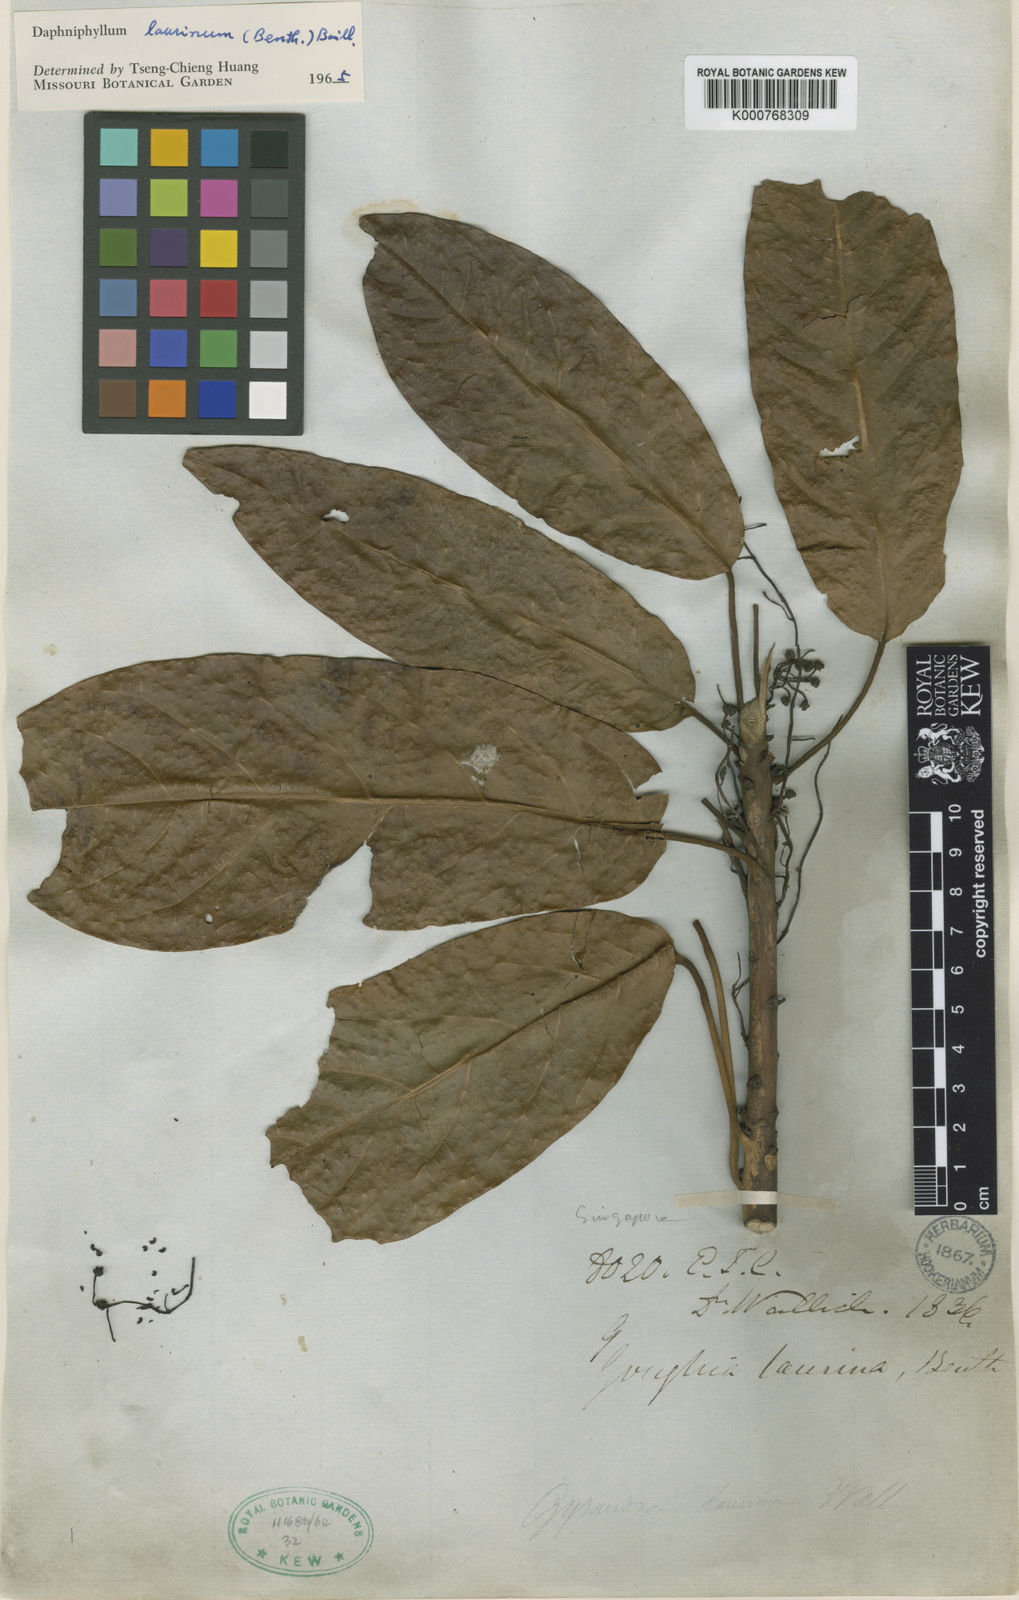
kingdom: Plantae
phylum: Tracheophyta
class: Magnoliopsida
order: Saxifragales
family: Daphniphyllaceae
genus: Daphniphyllum
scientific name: Daphniphyllum laurinum
